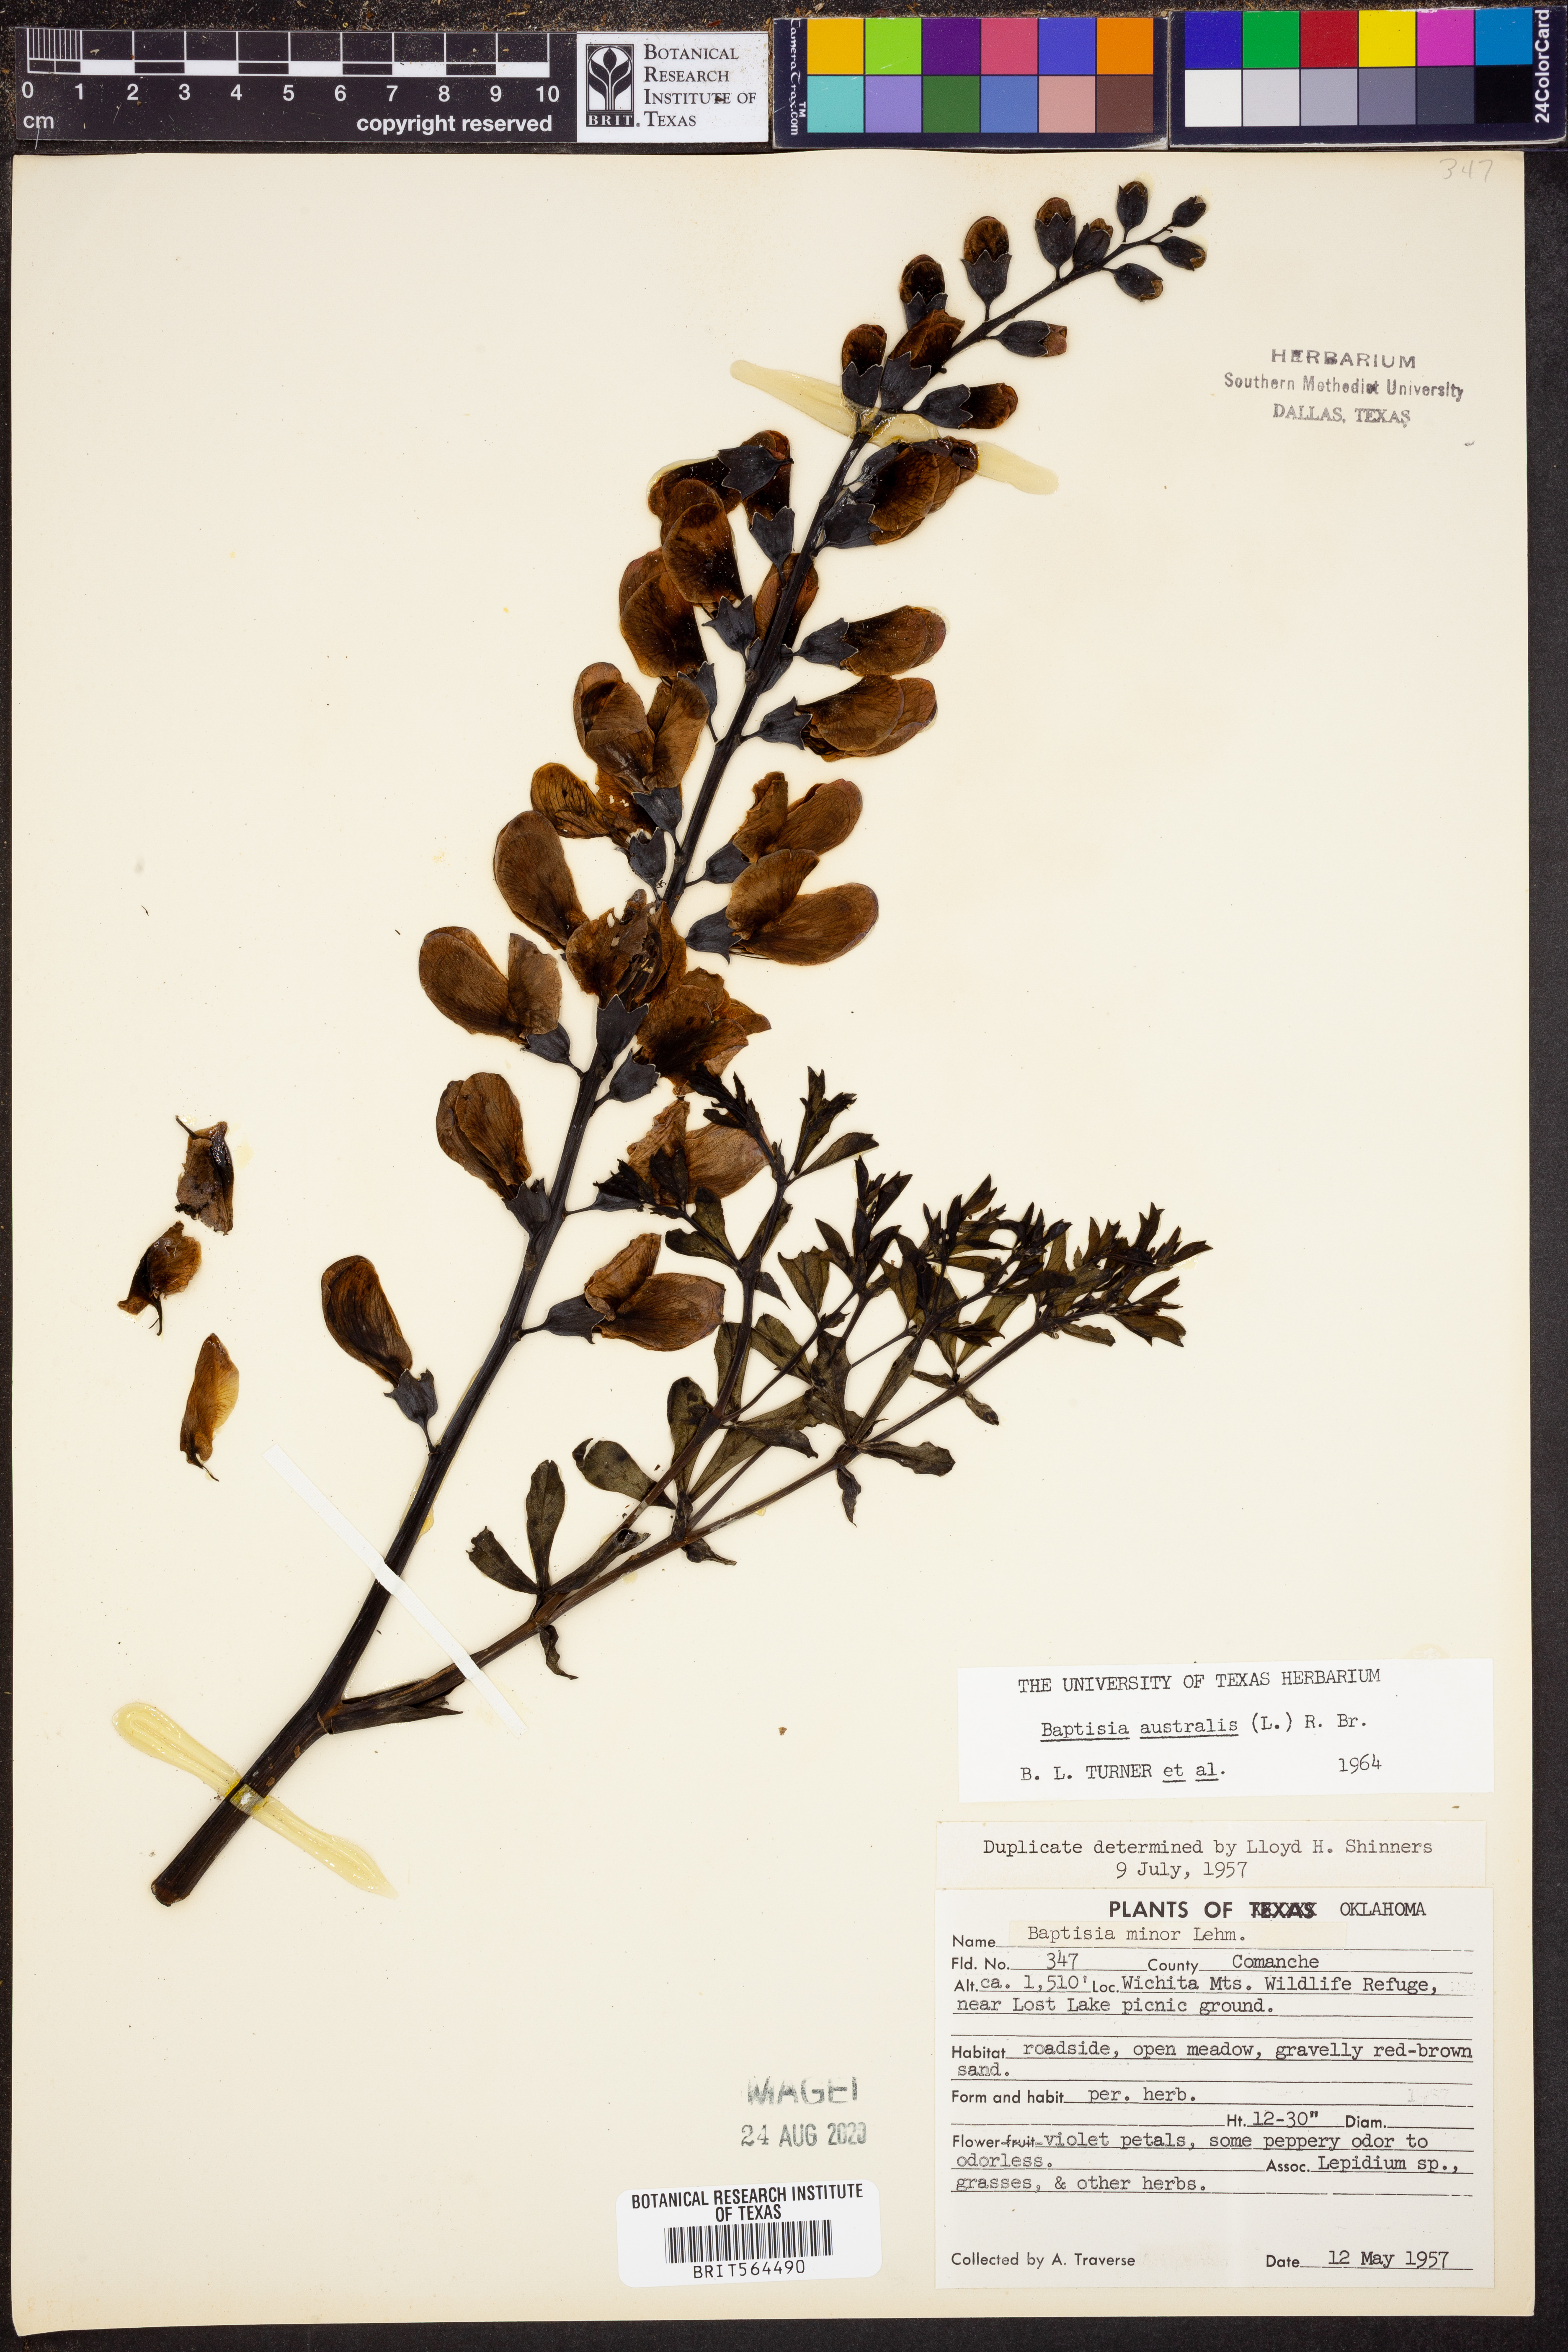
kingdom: Plantae
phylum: Tracheophyta
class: Magnoliopsida
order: Fabales
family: Fabaceae
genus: Baptisia
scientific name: Baptisia australis
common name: Blue false indigo
